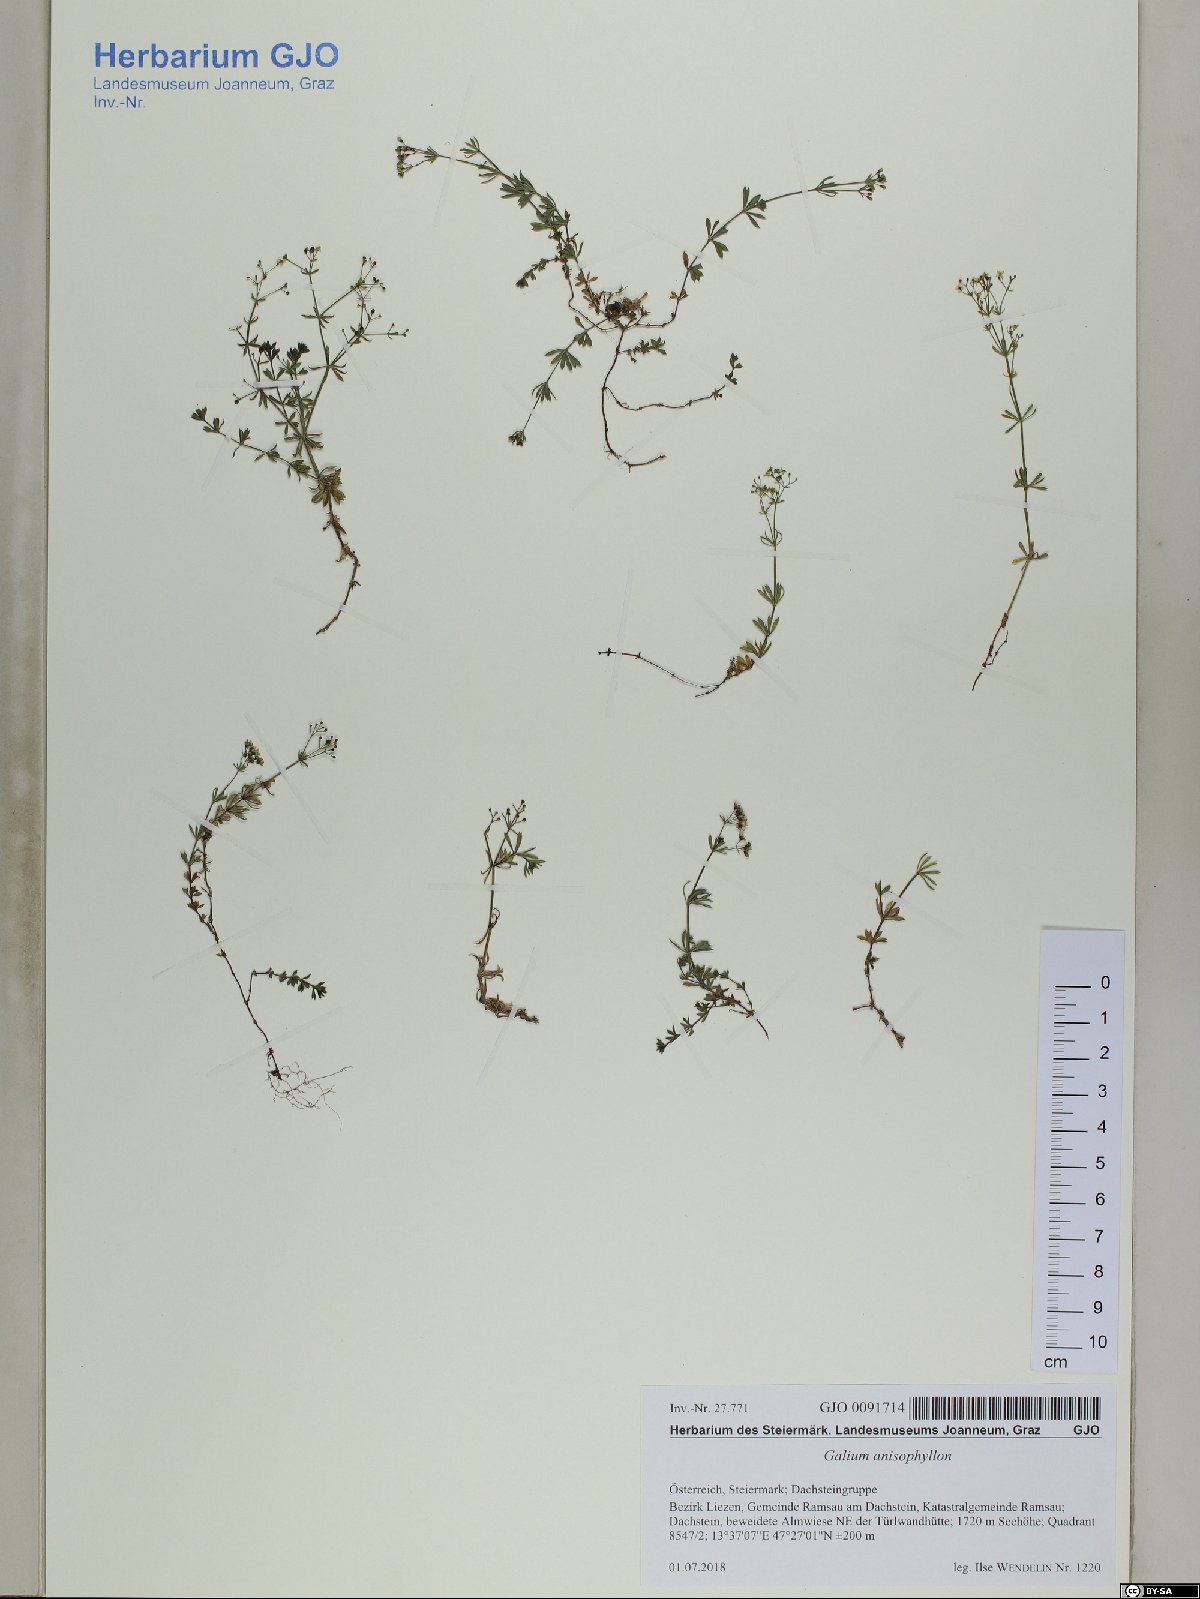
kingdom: Plantae
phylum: Tracheophyta
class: Magnoliopsida
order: Gentianales
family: Rubiaceae
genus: Galium
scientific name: Galium anisophyllon
